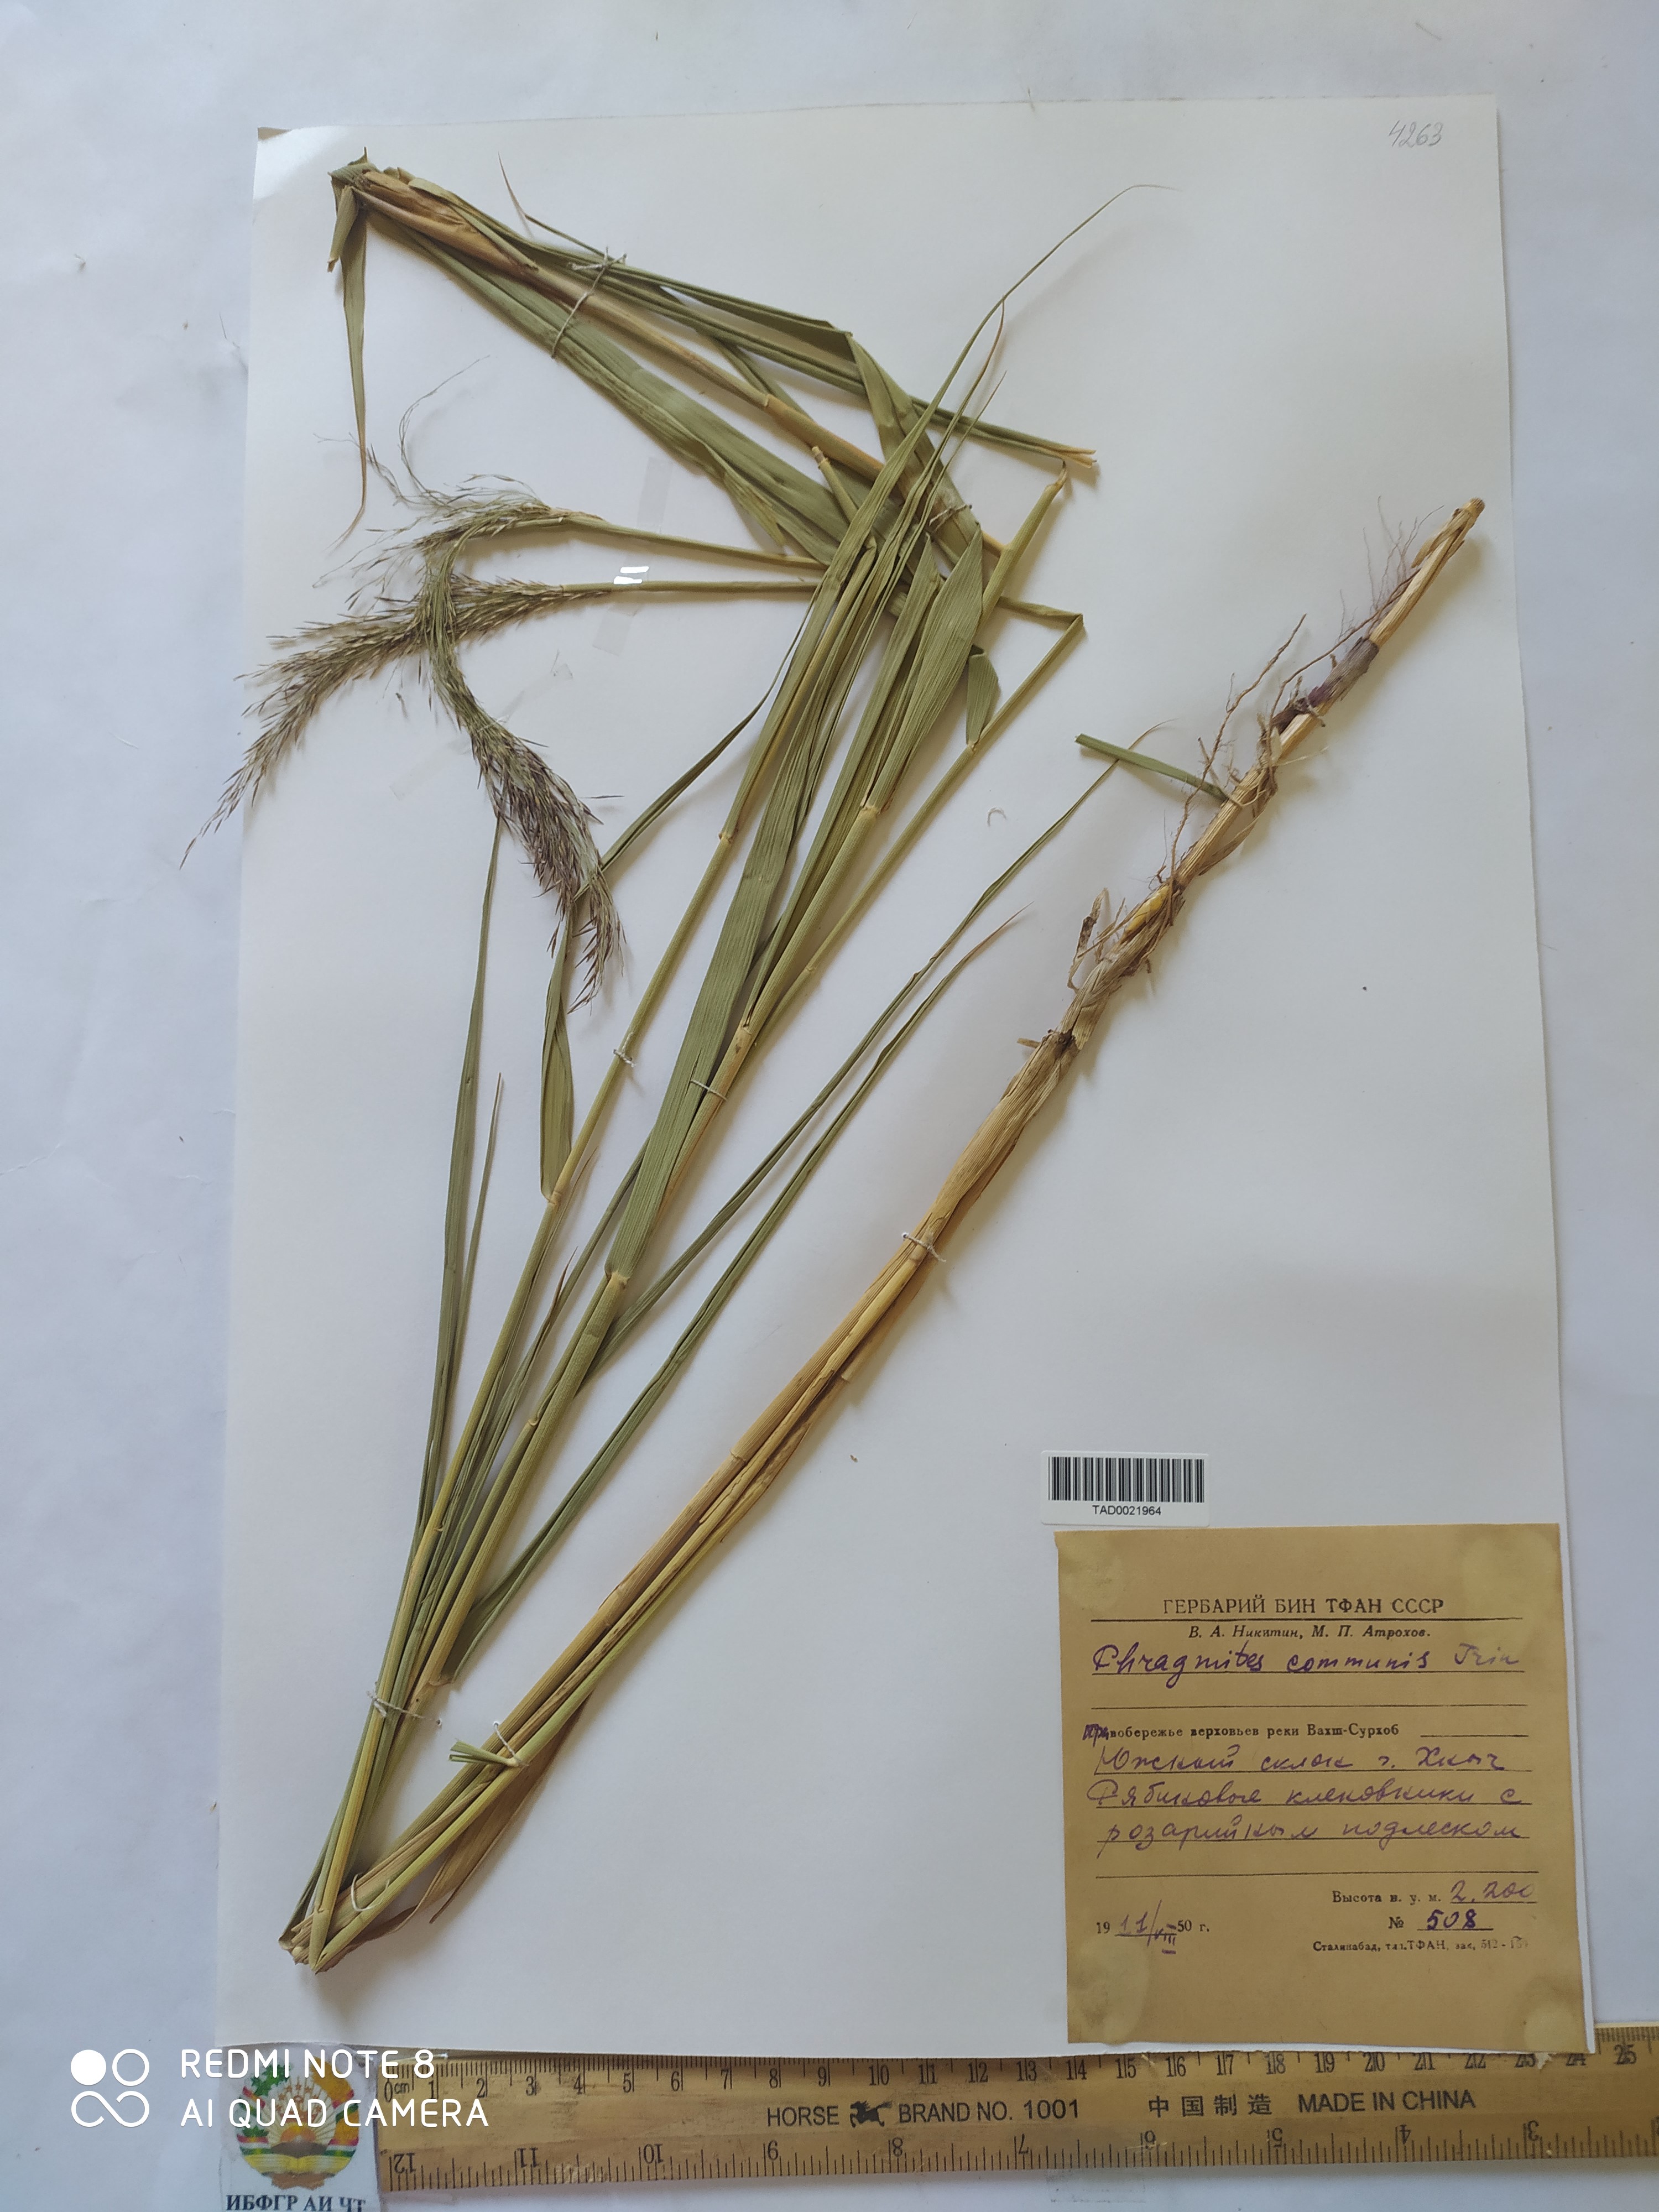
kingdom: Plantae
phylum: Tracheophyta
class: Liliopsida
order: Poales
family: Poaceae
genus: Phragmites
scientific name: Phragmites australis
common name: Common reed
